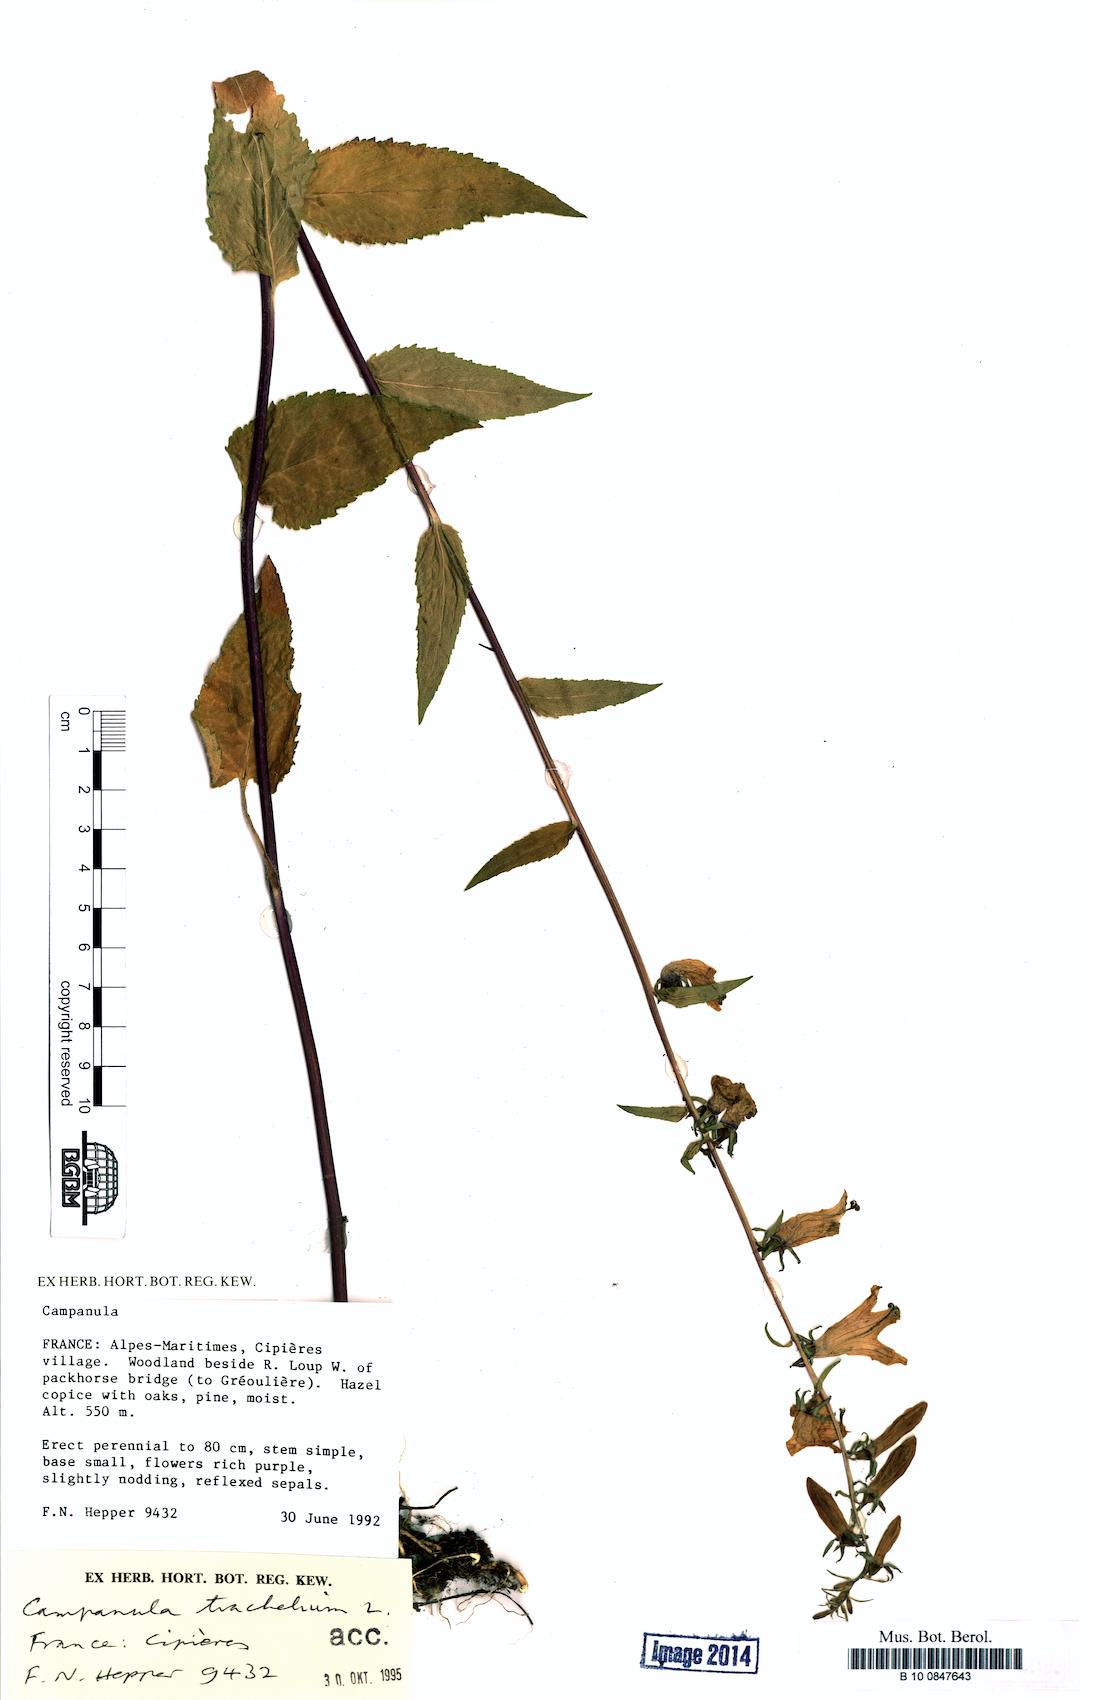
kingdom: Plantae
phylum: Tracheophyta
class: Magnoliopsida
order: Asterales
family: Campanulaceae
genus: Campanula
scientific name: Campanula trachelium
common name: Nettle-leaved bellflower
